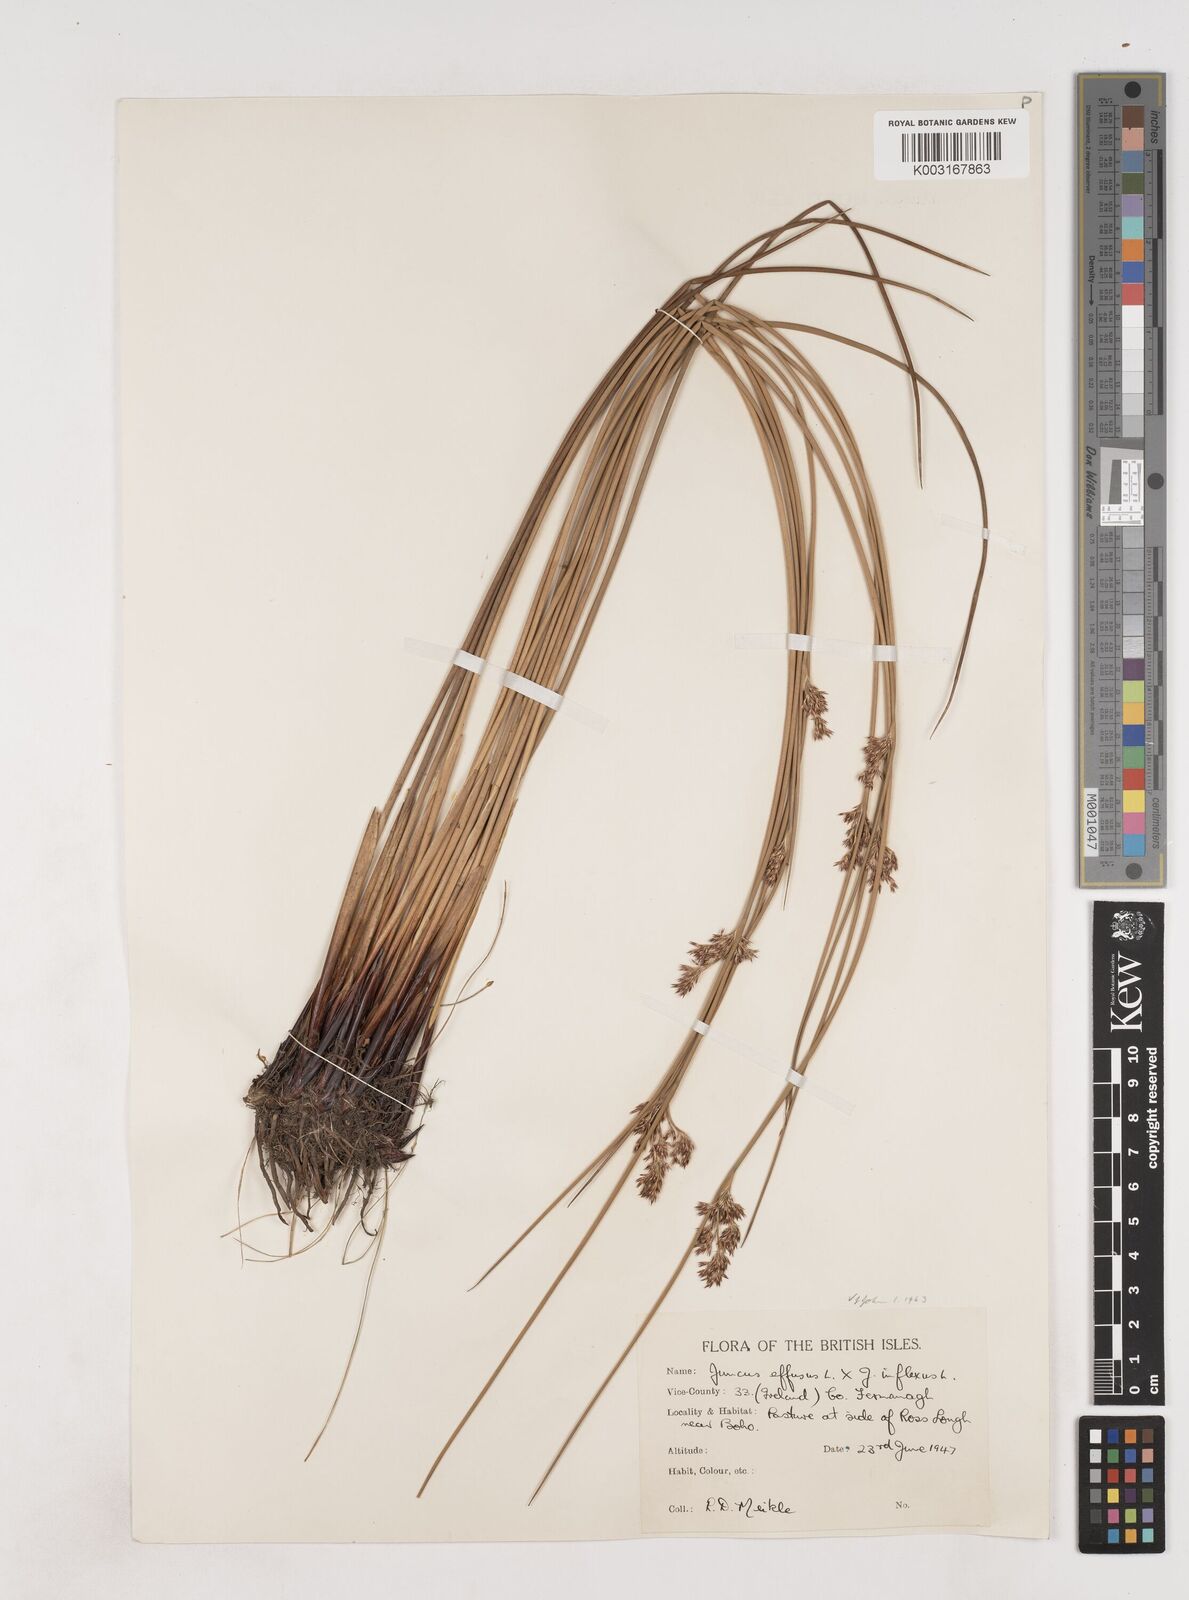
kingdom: Plantae
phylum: Tracheophyta
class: Liliopsida
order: Poales
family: Juncaceae
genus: Juncus
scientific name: Juncus effusus
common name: Soft rush
